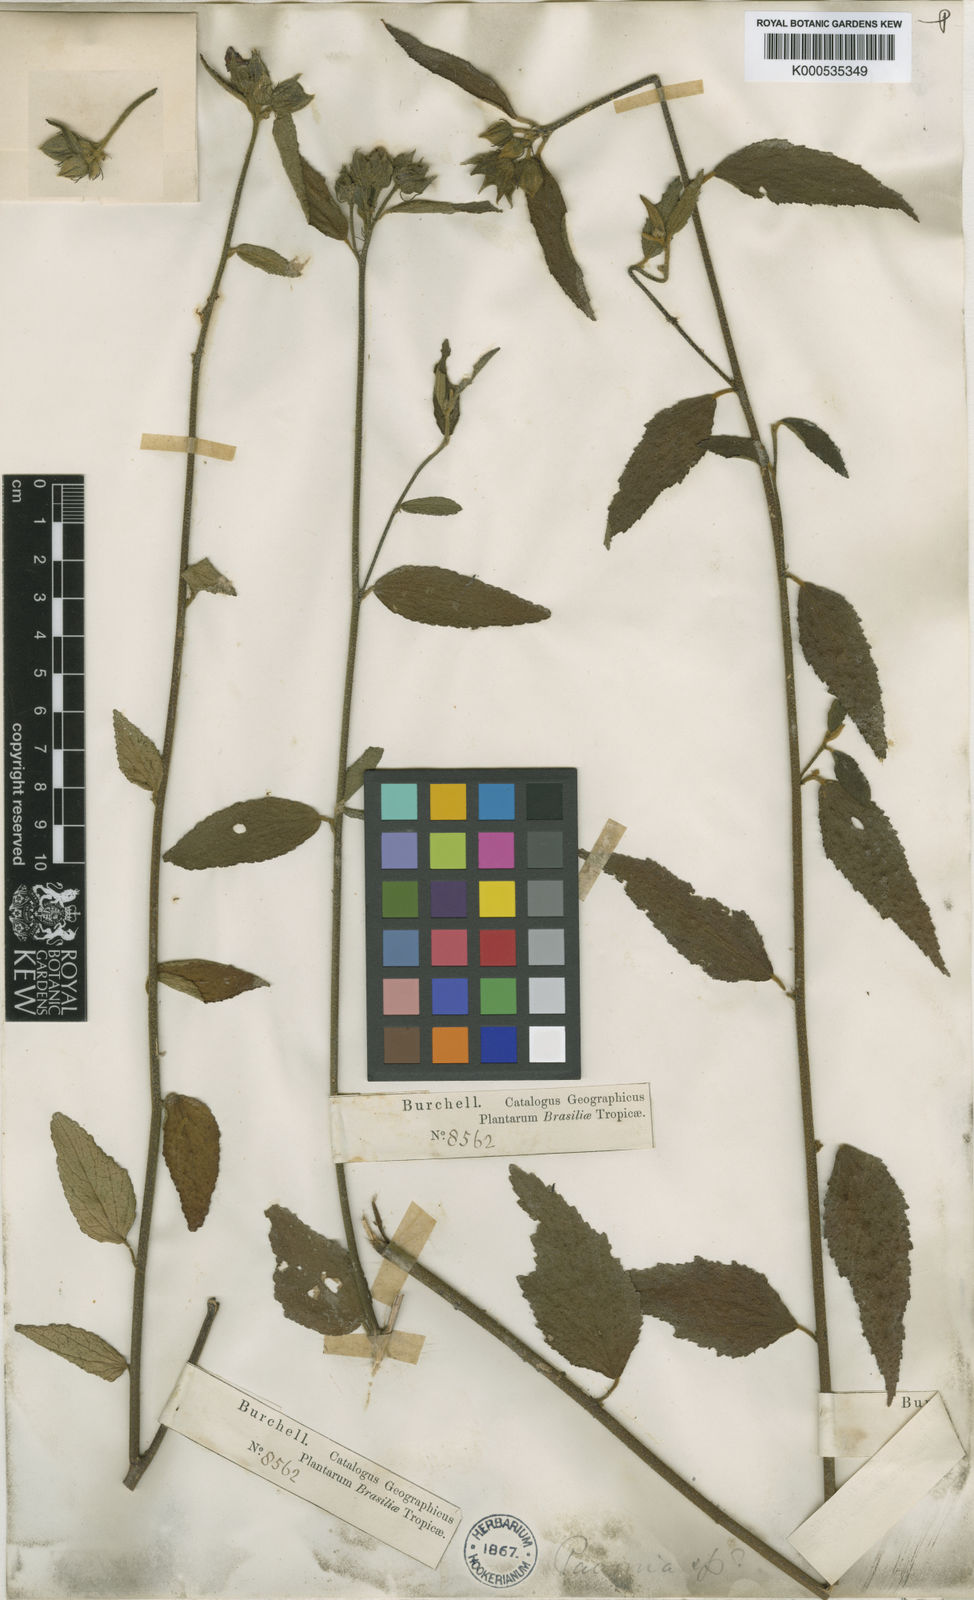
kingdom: Plantae
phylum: Tracheophyta
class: Magnoliopsida
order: Malvales
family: Malvaceae
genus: Pavonia
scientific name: Pavonia angustifolia
